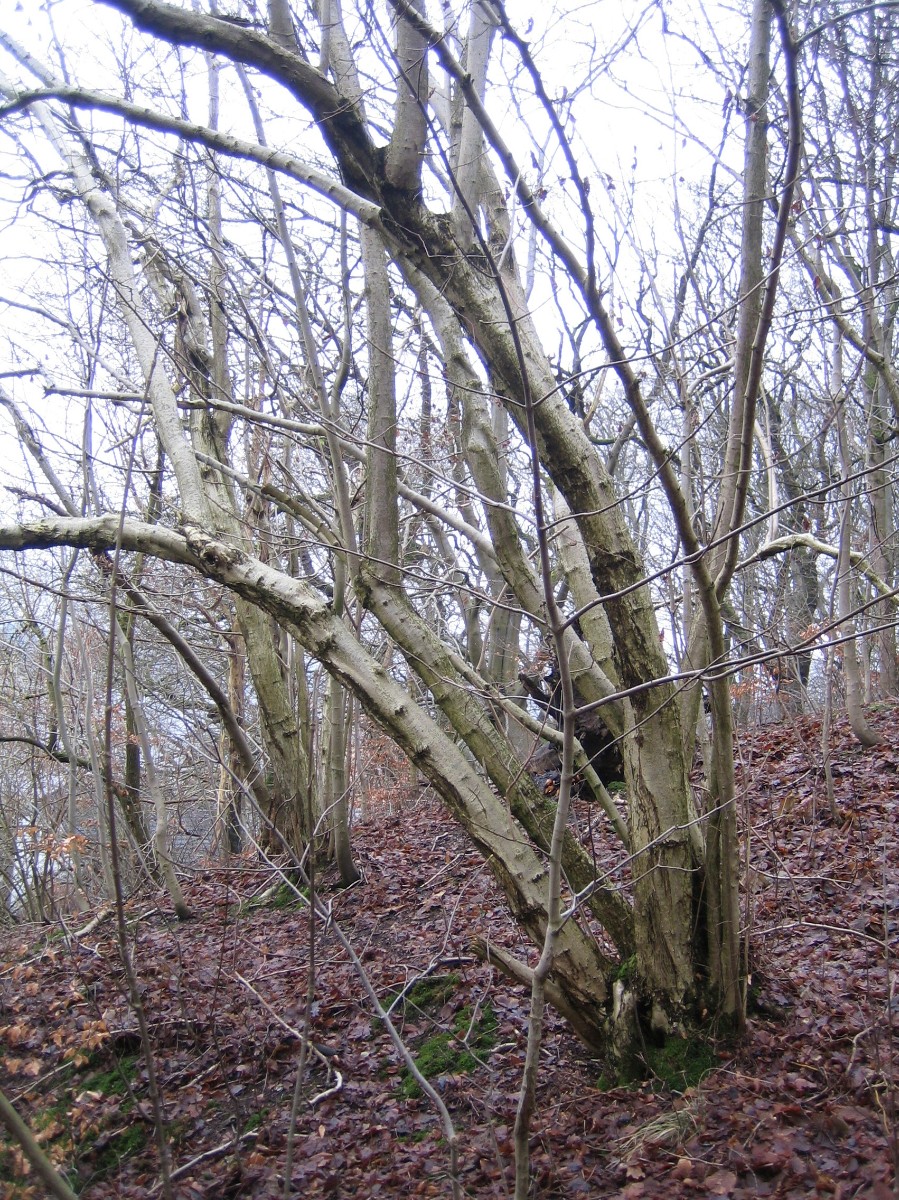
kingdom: Fungi
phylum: Ascomycota
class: Sordariomycetes
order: Xylariales
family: Hypoxylaceae
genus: Hypoxylon
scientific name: Hypoxylon fuscum
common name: kegleformet kulbær
